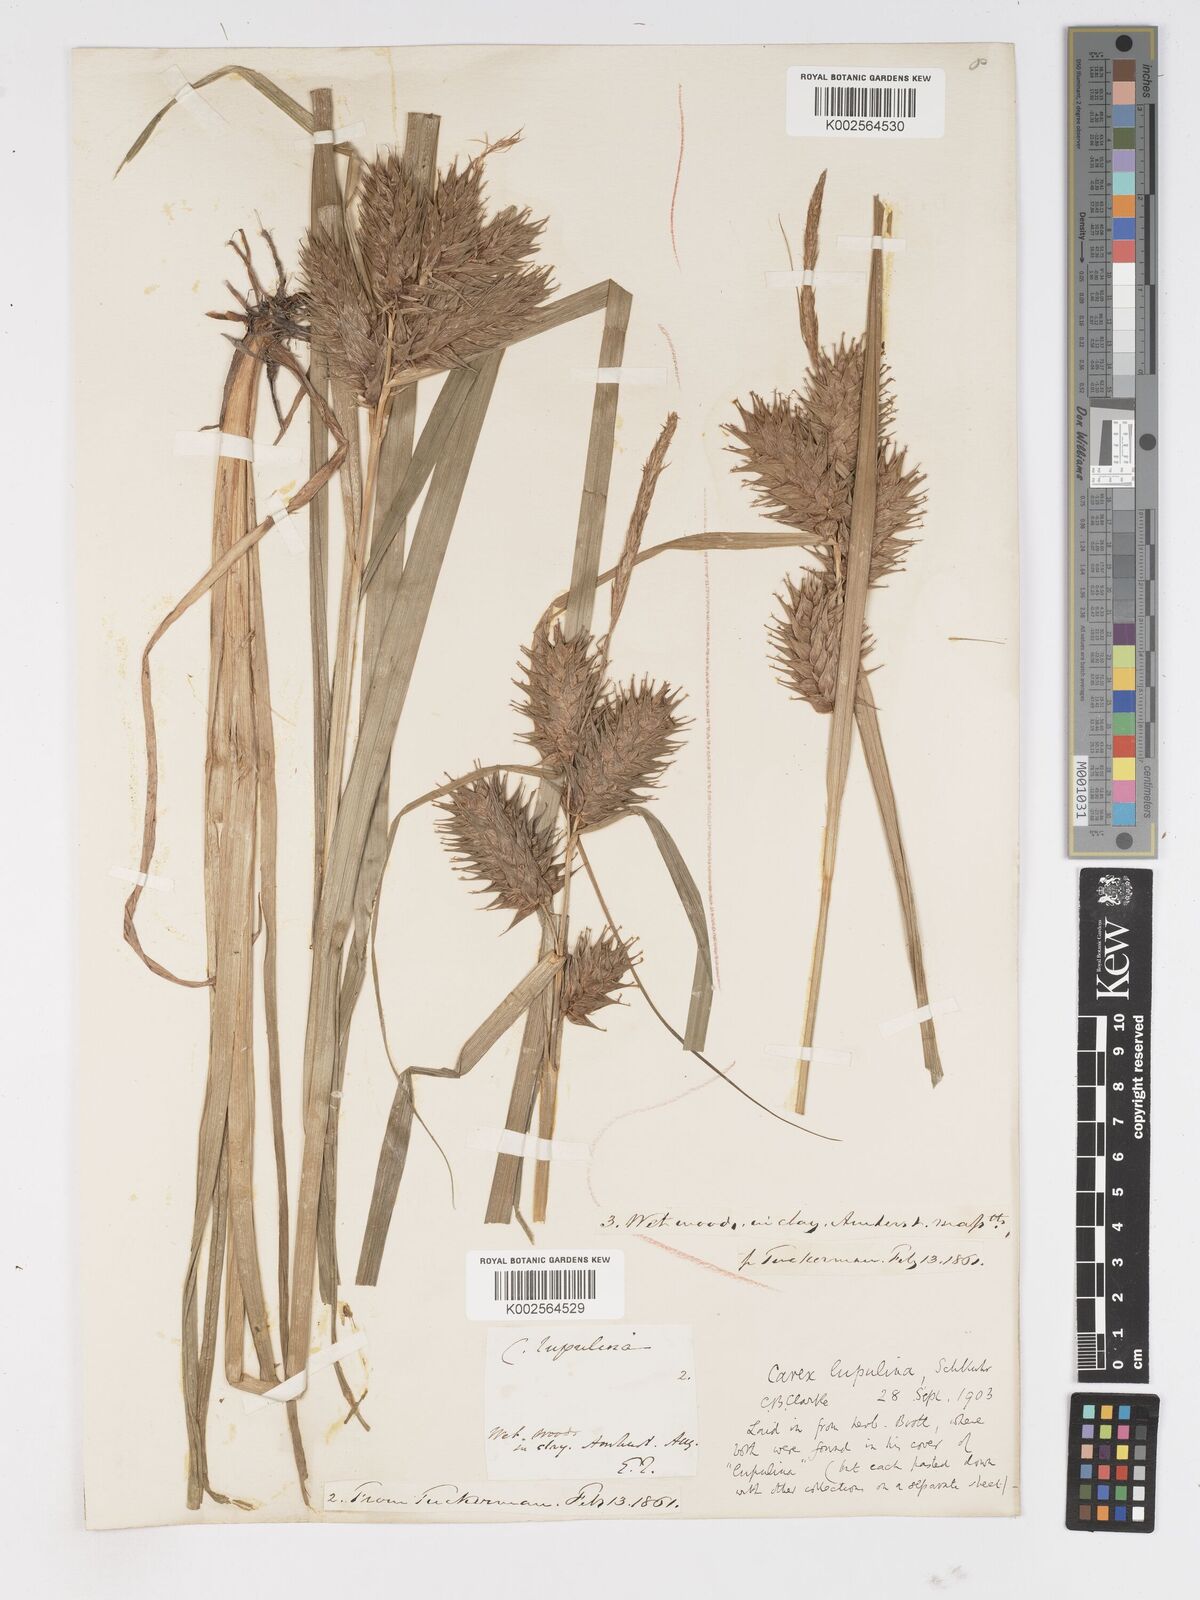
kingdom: Plantae
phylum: Tracheophyta
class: Liliopsida
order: Poales
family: Cyperaceae
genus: Carex
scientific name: Carex lupulina
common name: Hop sedge
